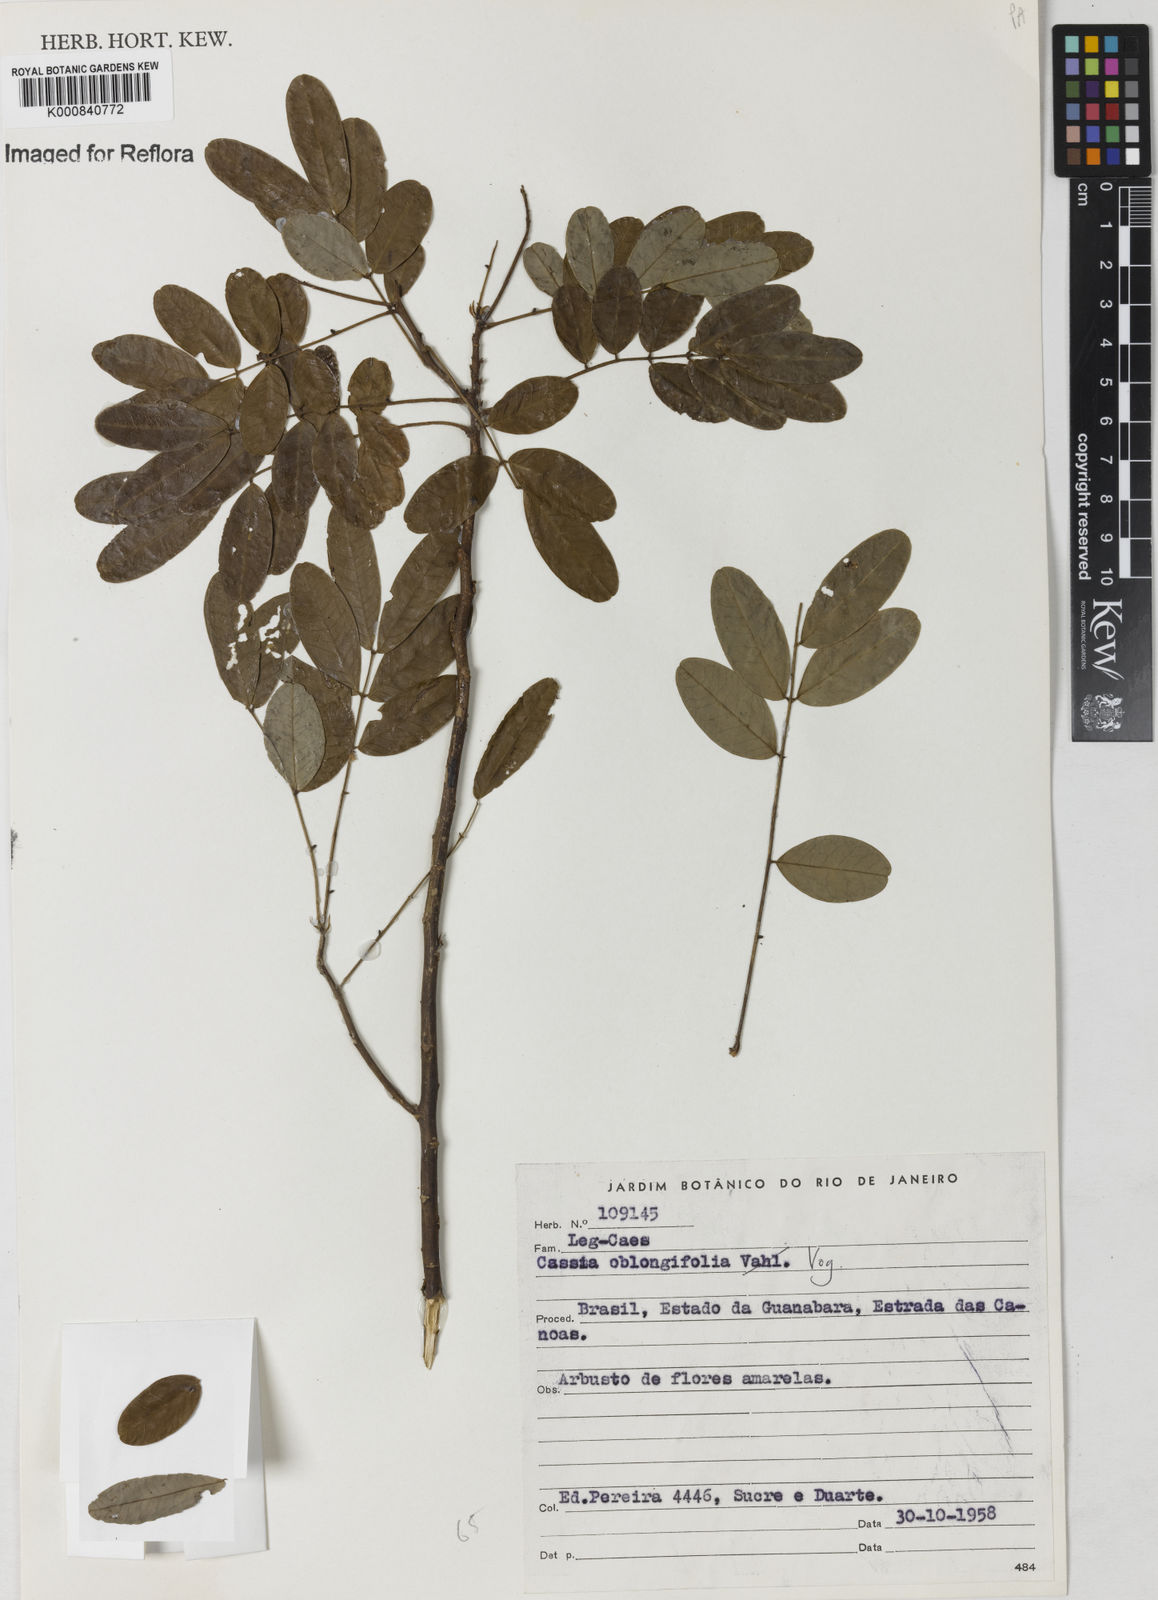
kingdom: Plantae
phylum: Tracheophyta
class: Magnoliopsida
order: Fabales
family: Fabaceae
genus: Senna
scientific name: Senna oblongifolia
